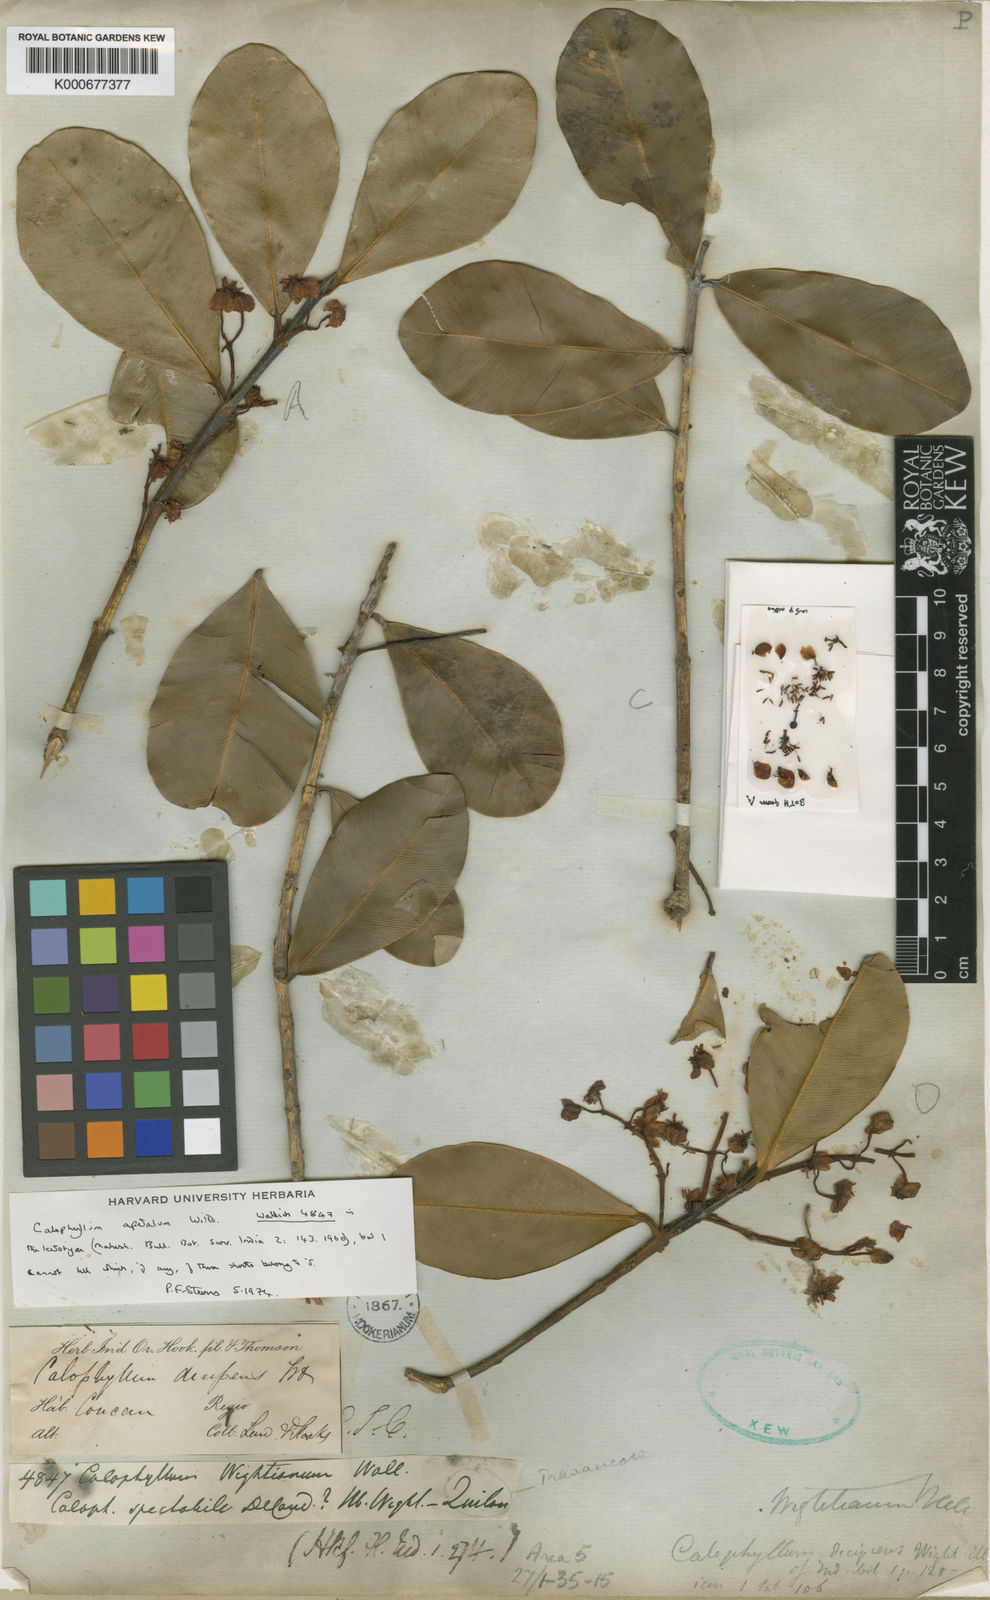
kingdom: Plantae
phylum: Tracheophyta
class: Magnoliopsida
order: Malpighiales
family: Calophyllaceae
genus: Calophyllum
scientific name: Calophyllum apetalum
